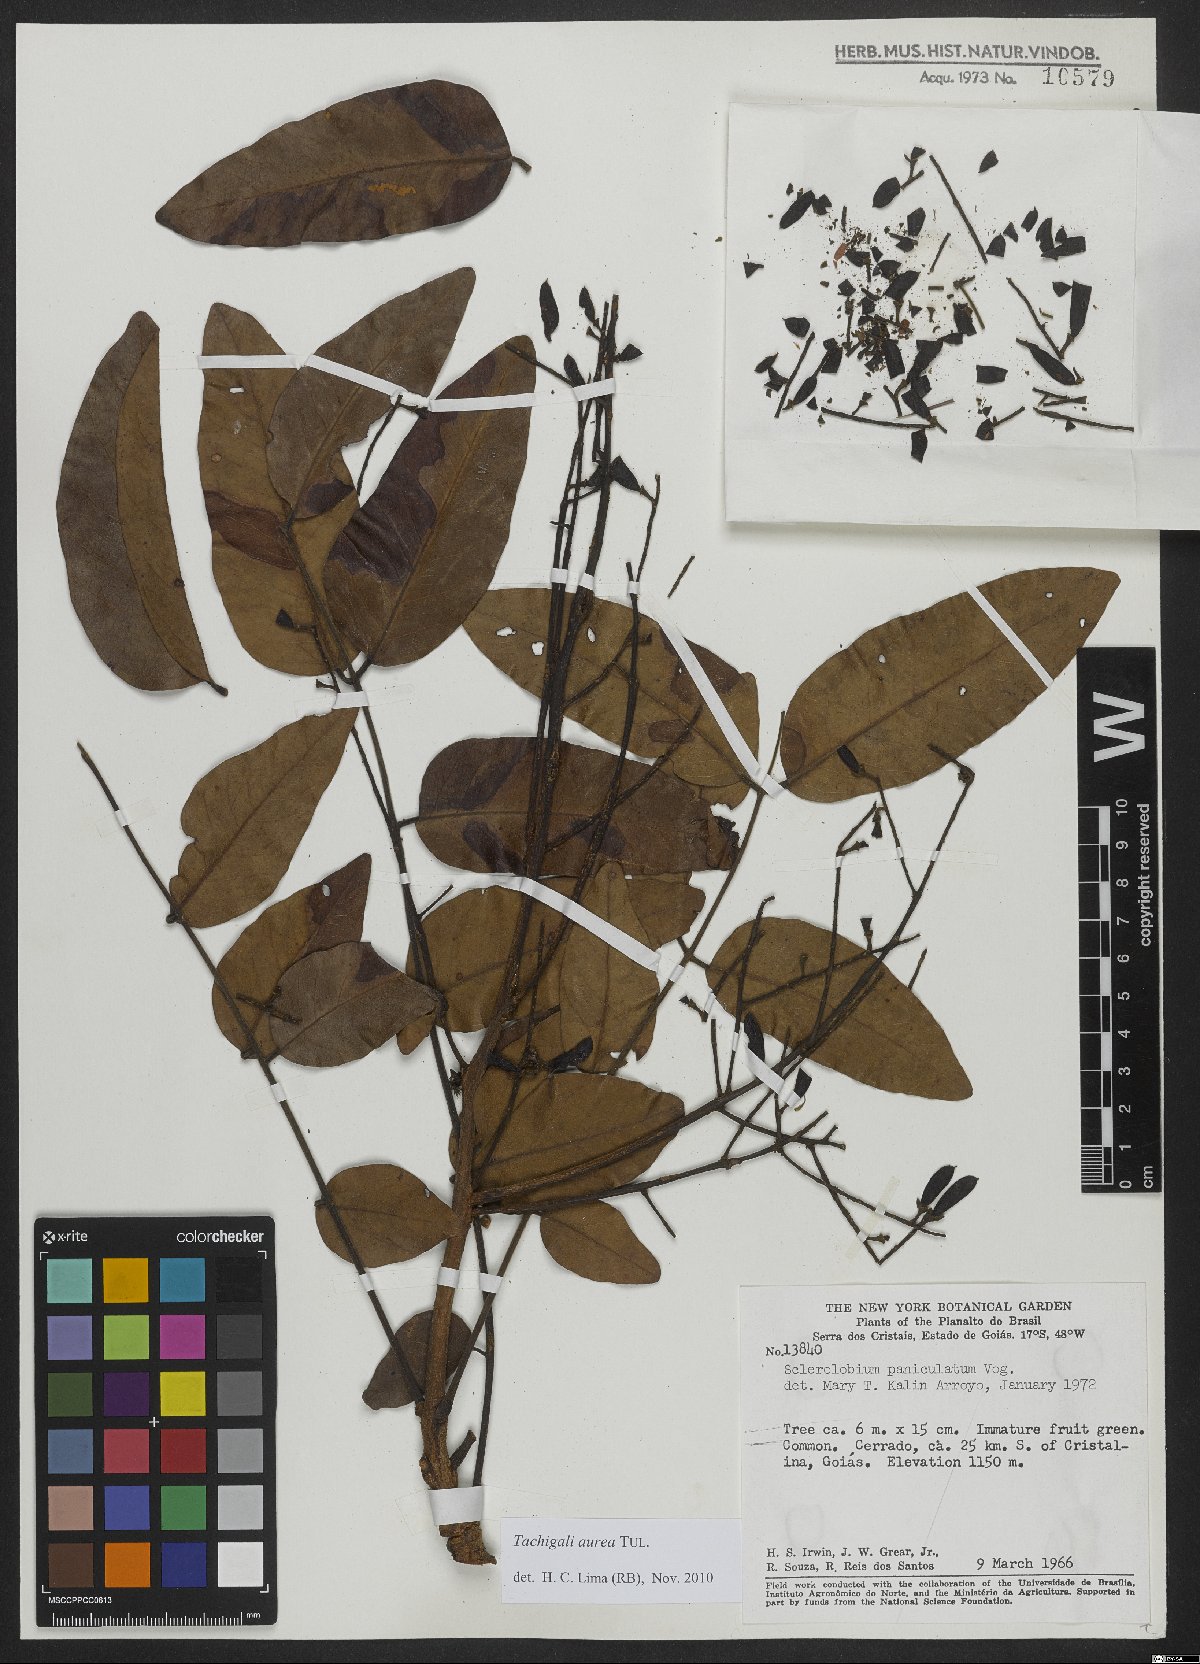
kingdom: Plantae
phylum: Tracheophyta
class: Magnoliopsida
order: Fabales
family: Fabaceae
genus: Tachigali
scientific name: Tachigali aurea
